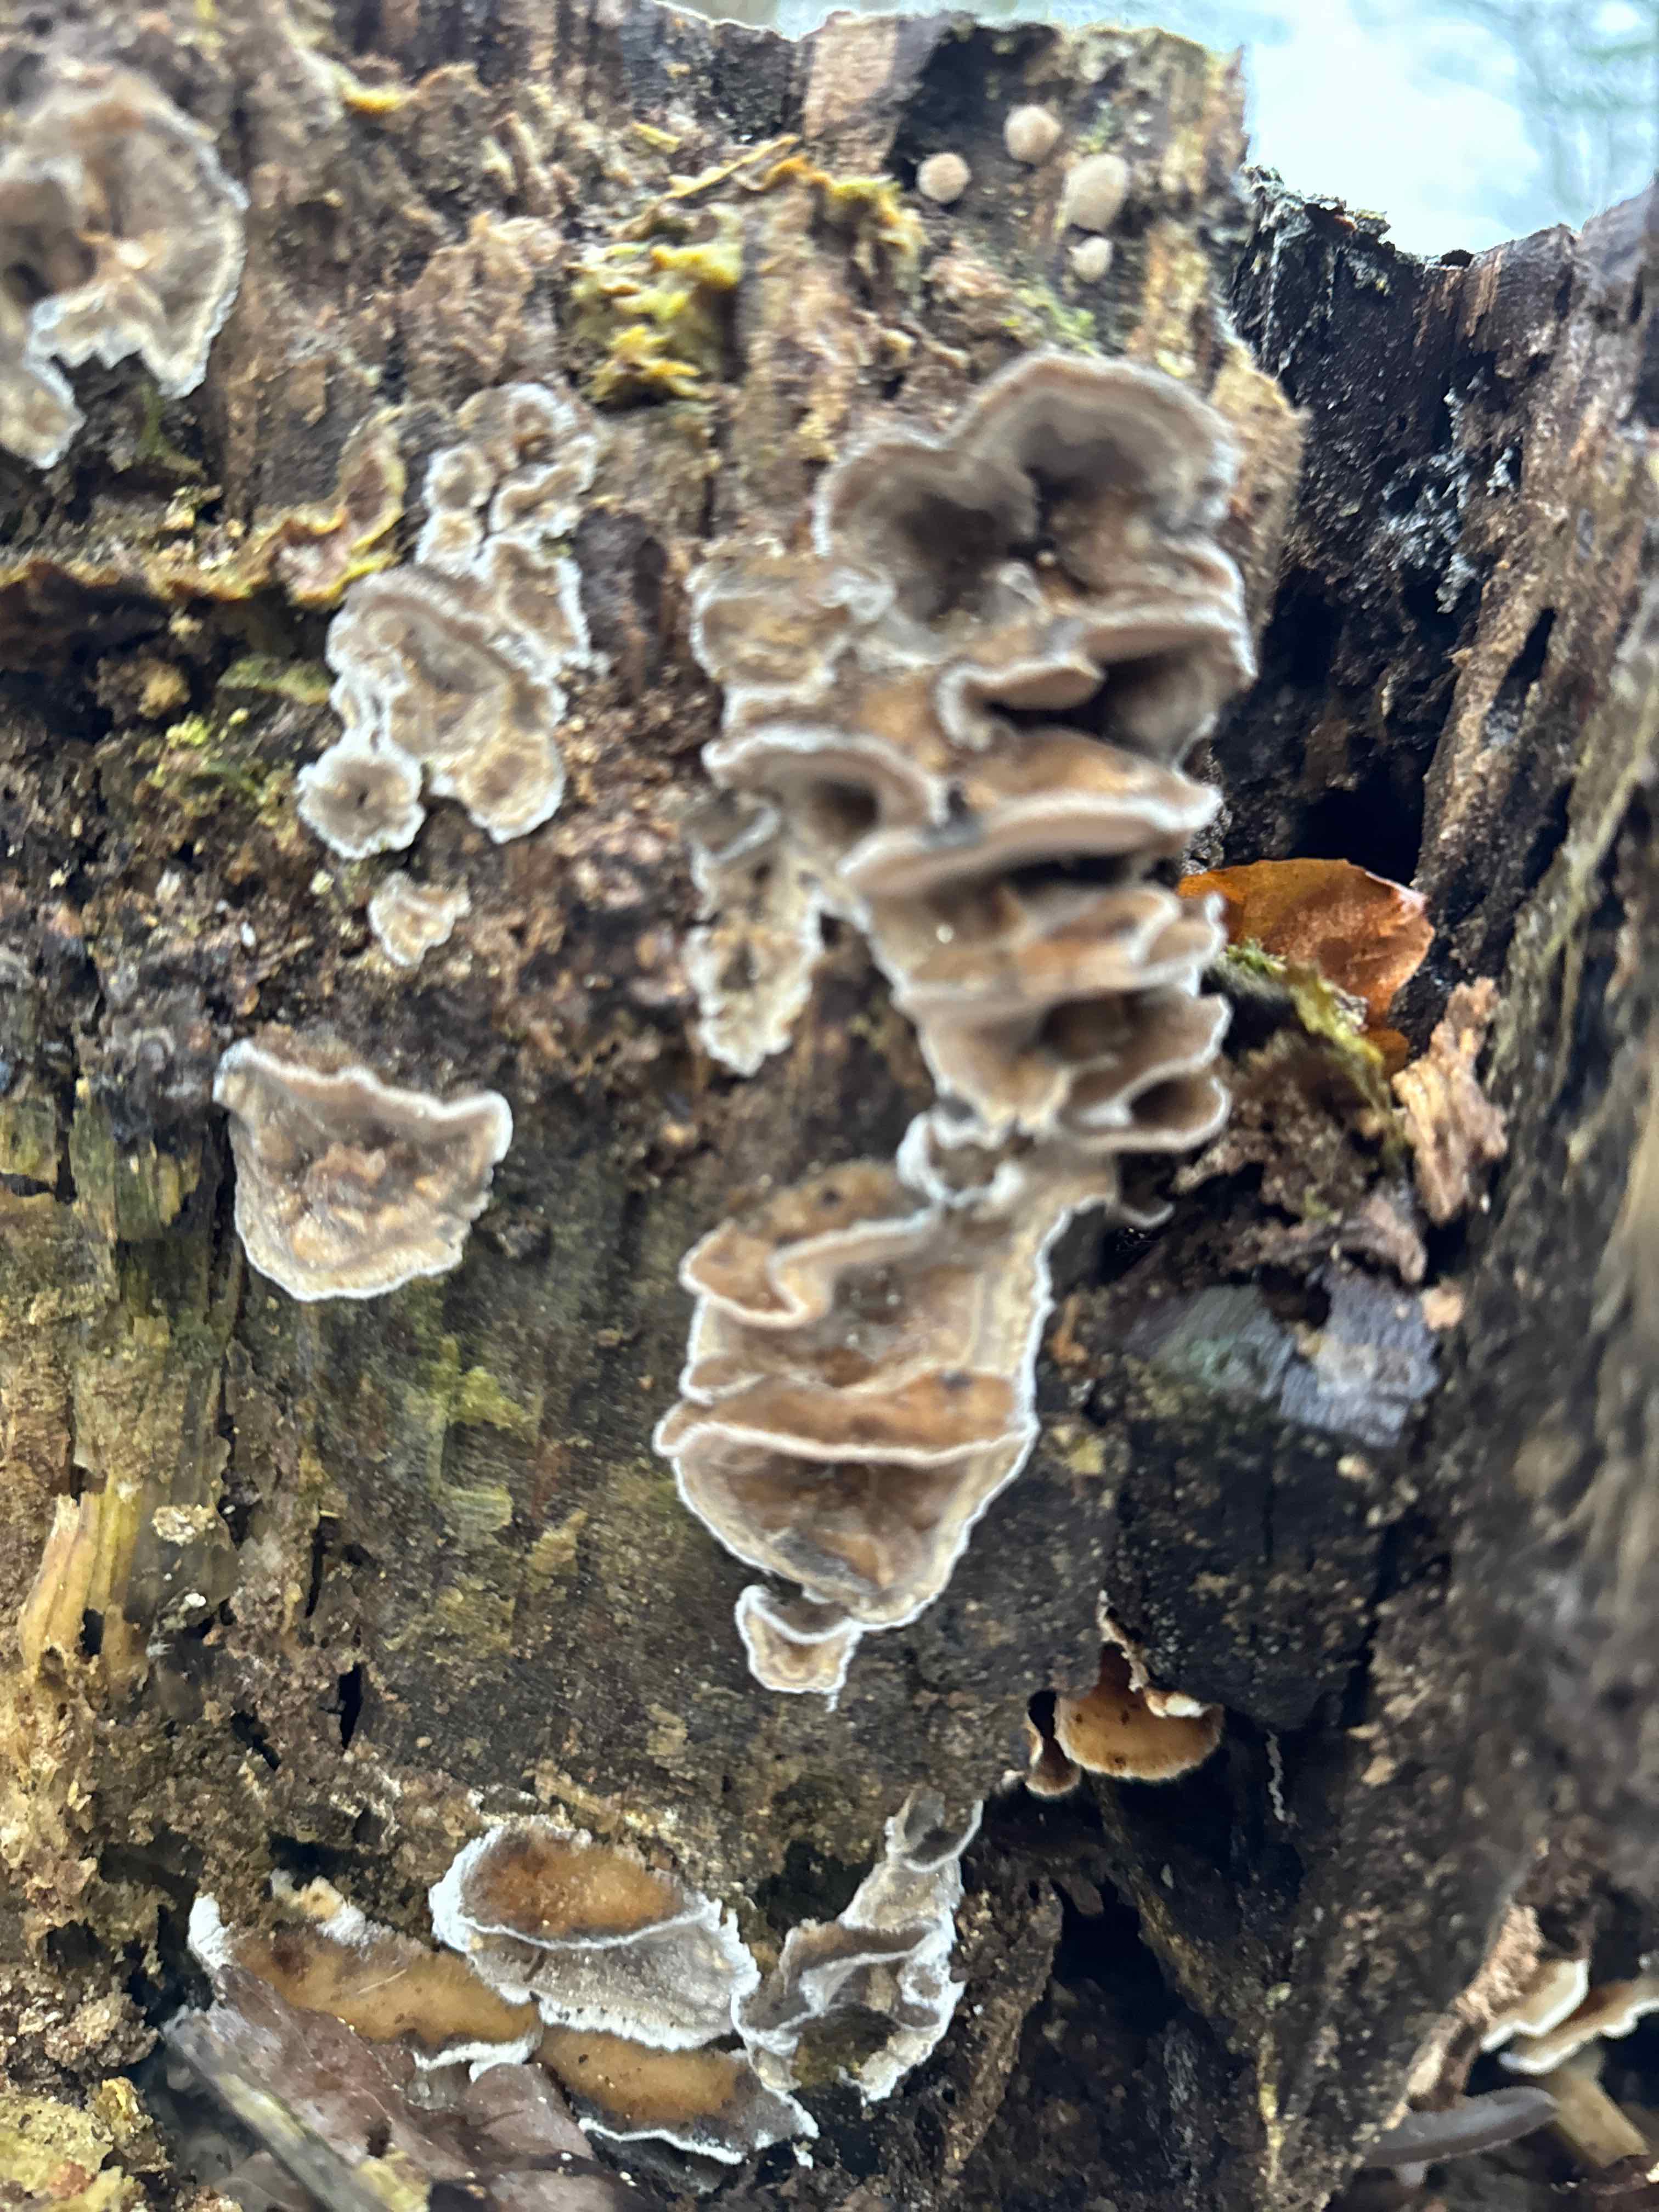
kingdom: Fungi
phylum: Basidiomycota
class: Agaricomycetes
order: Polyporales
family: Phanerochaetaceae
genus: Bjerkandera
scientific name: Bjerkandera adusta
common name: sveden sodporesvamp
